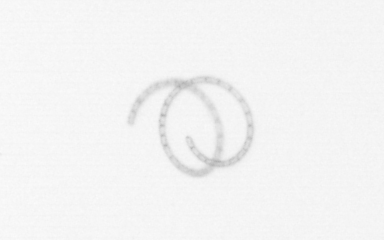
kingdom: Chromista
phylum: Ochrophyta
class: Bacillariophyceae
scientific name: Bacillariophyceae
